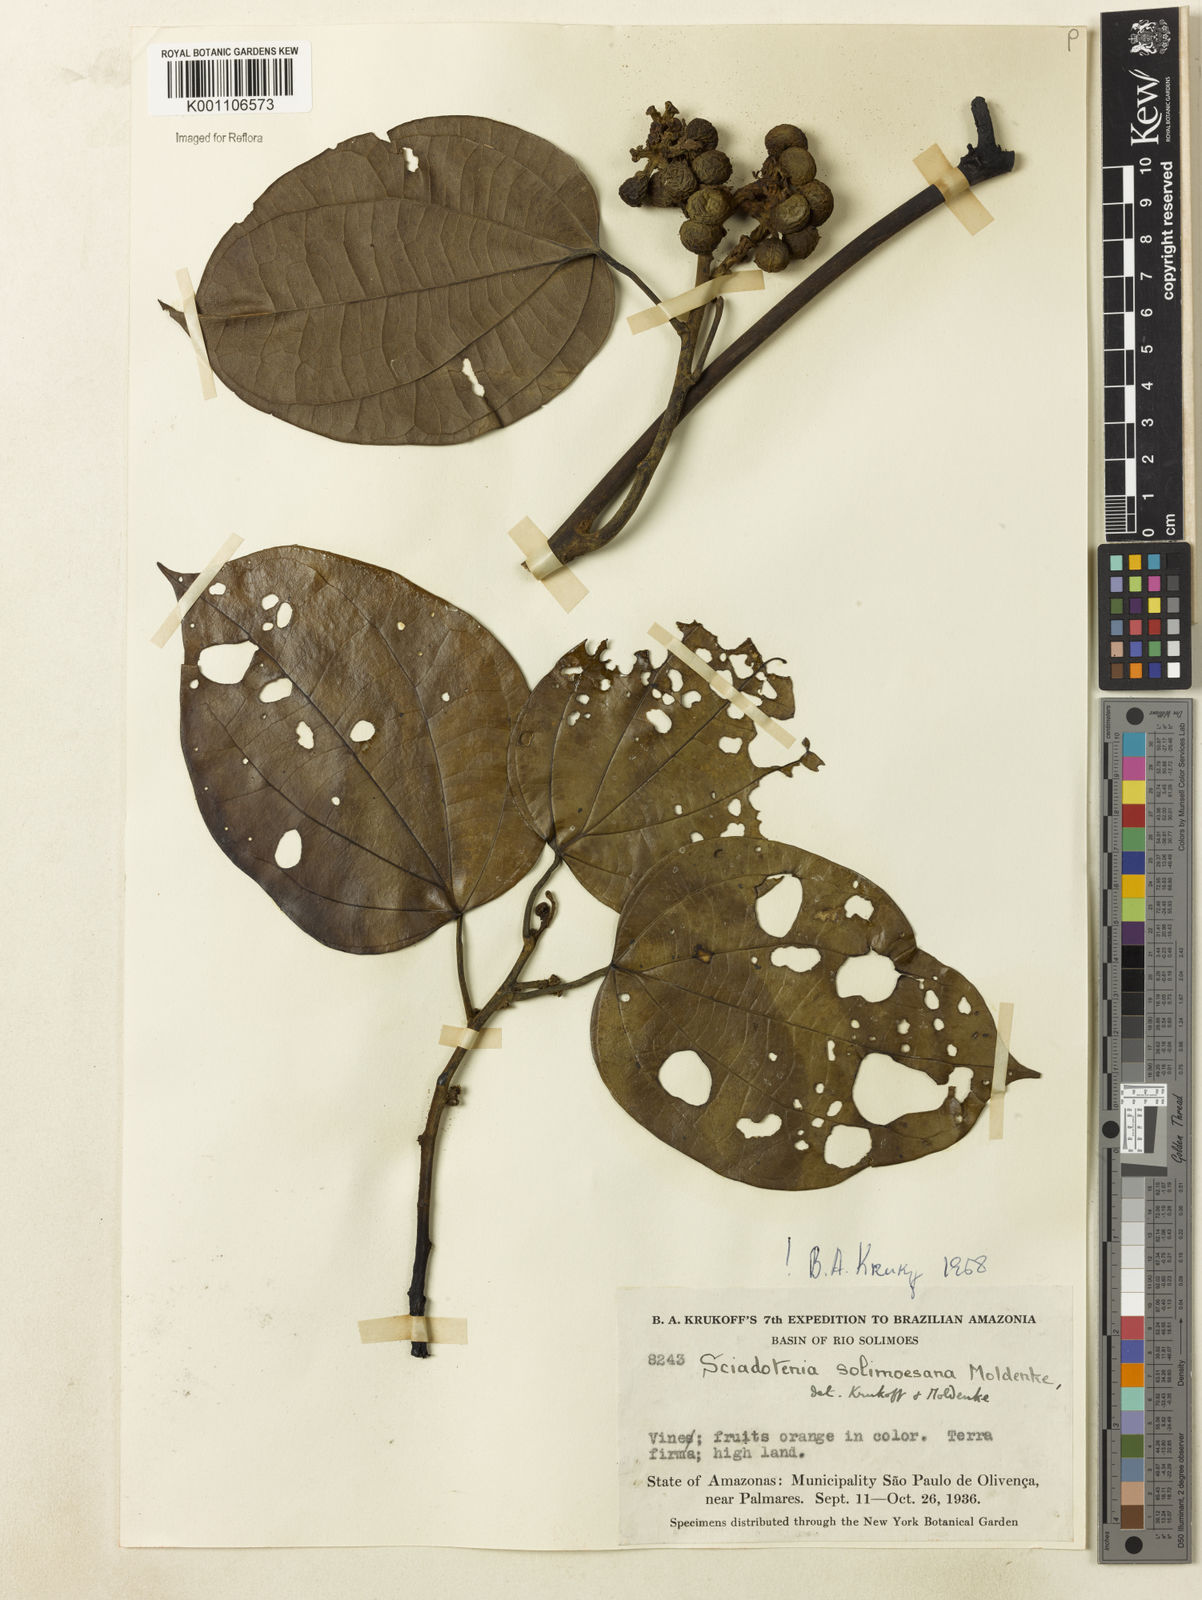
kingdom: Plantae
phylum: Tracheophyta
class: Magnoliopsida
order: Ranunculales
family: Menispermaceae
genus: Sciadotenia
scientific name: Sciadotenia solimoesana
